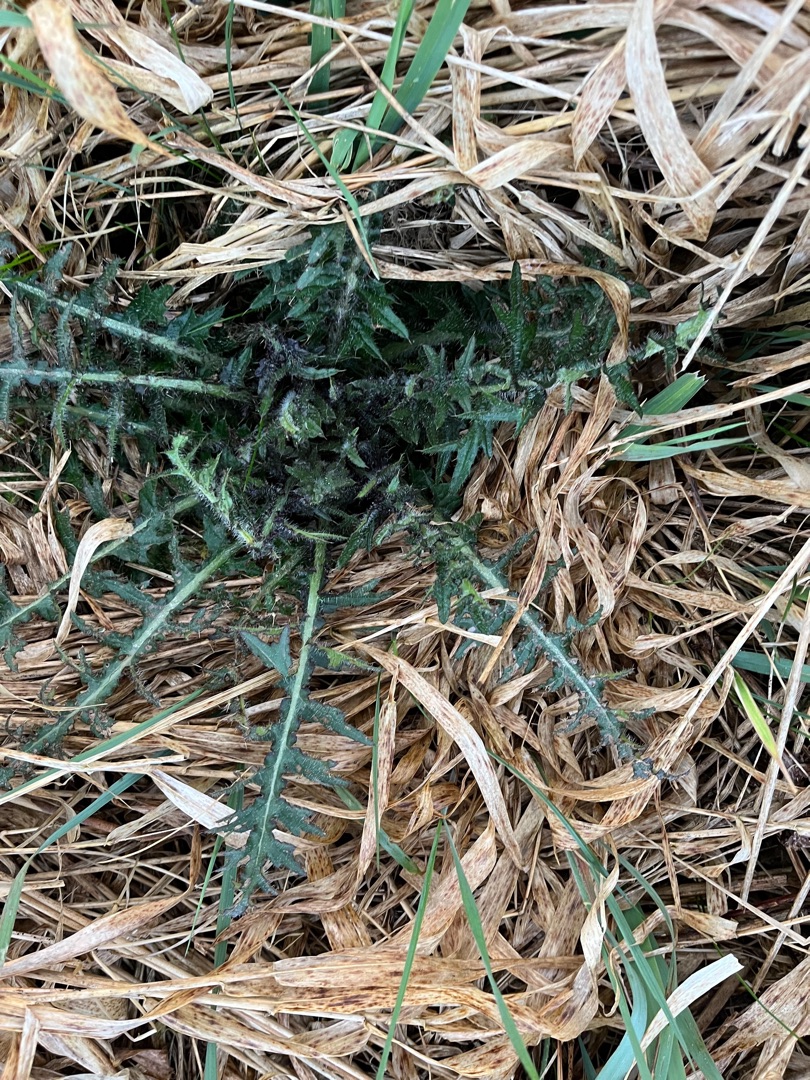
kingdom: Plantae
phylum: Tracheophyta
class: Magnoliopsida
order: Asterales
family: Asteraceae
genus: Cirsium
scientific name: Cirsium palustre
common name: Kær-tidsel
